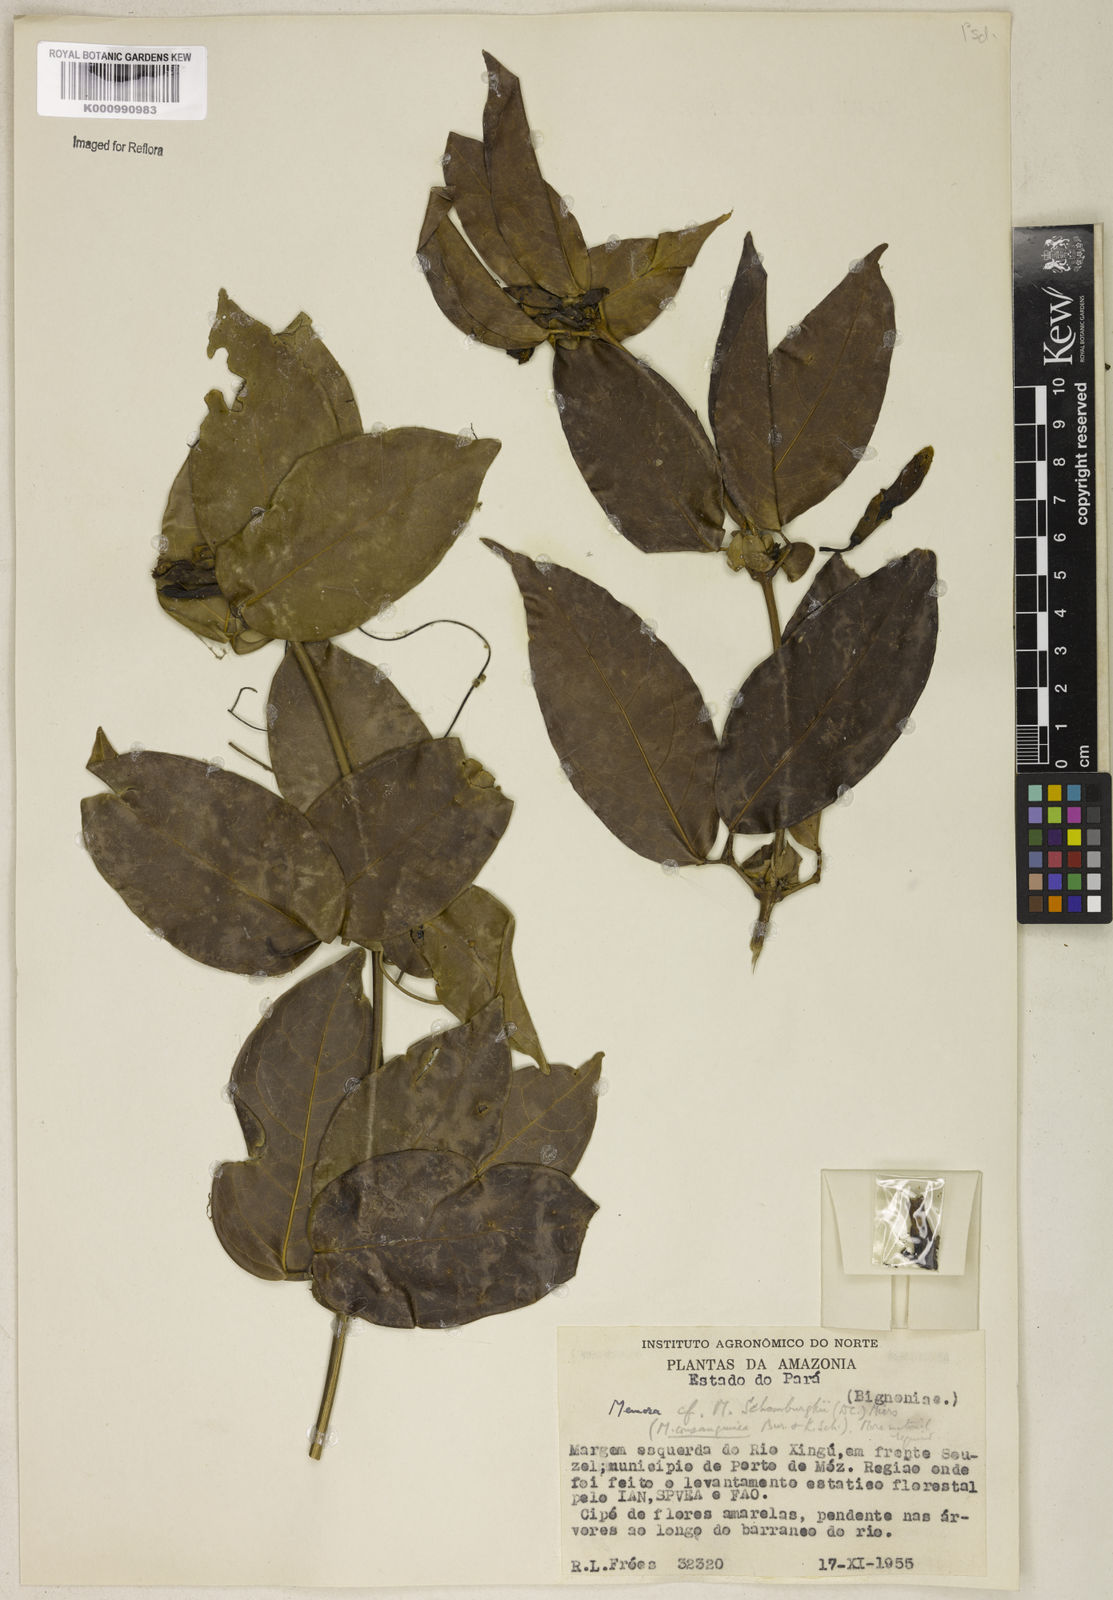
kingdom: Plantae
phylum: Tracheophyta
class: Magnoliopsida
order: Lamiales
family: Bignoniaceae
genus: Adenocalymma
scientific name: Adenocalymma schomburgkii
